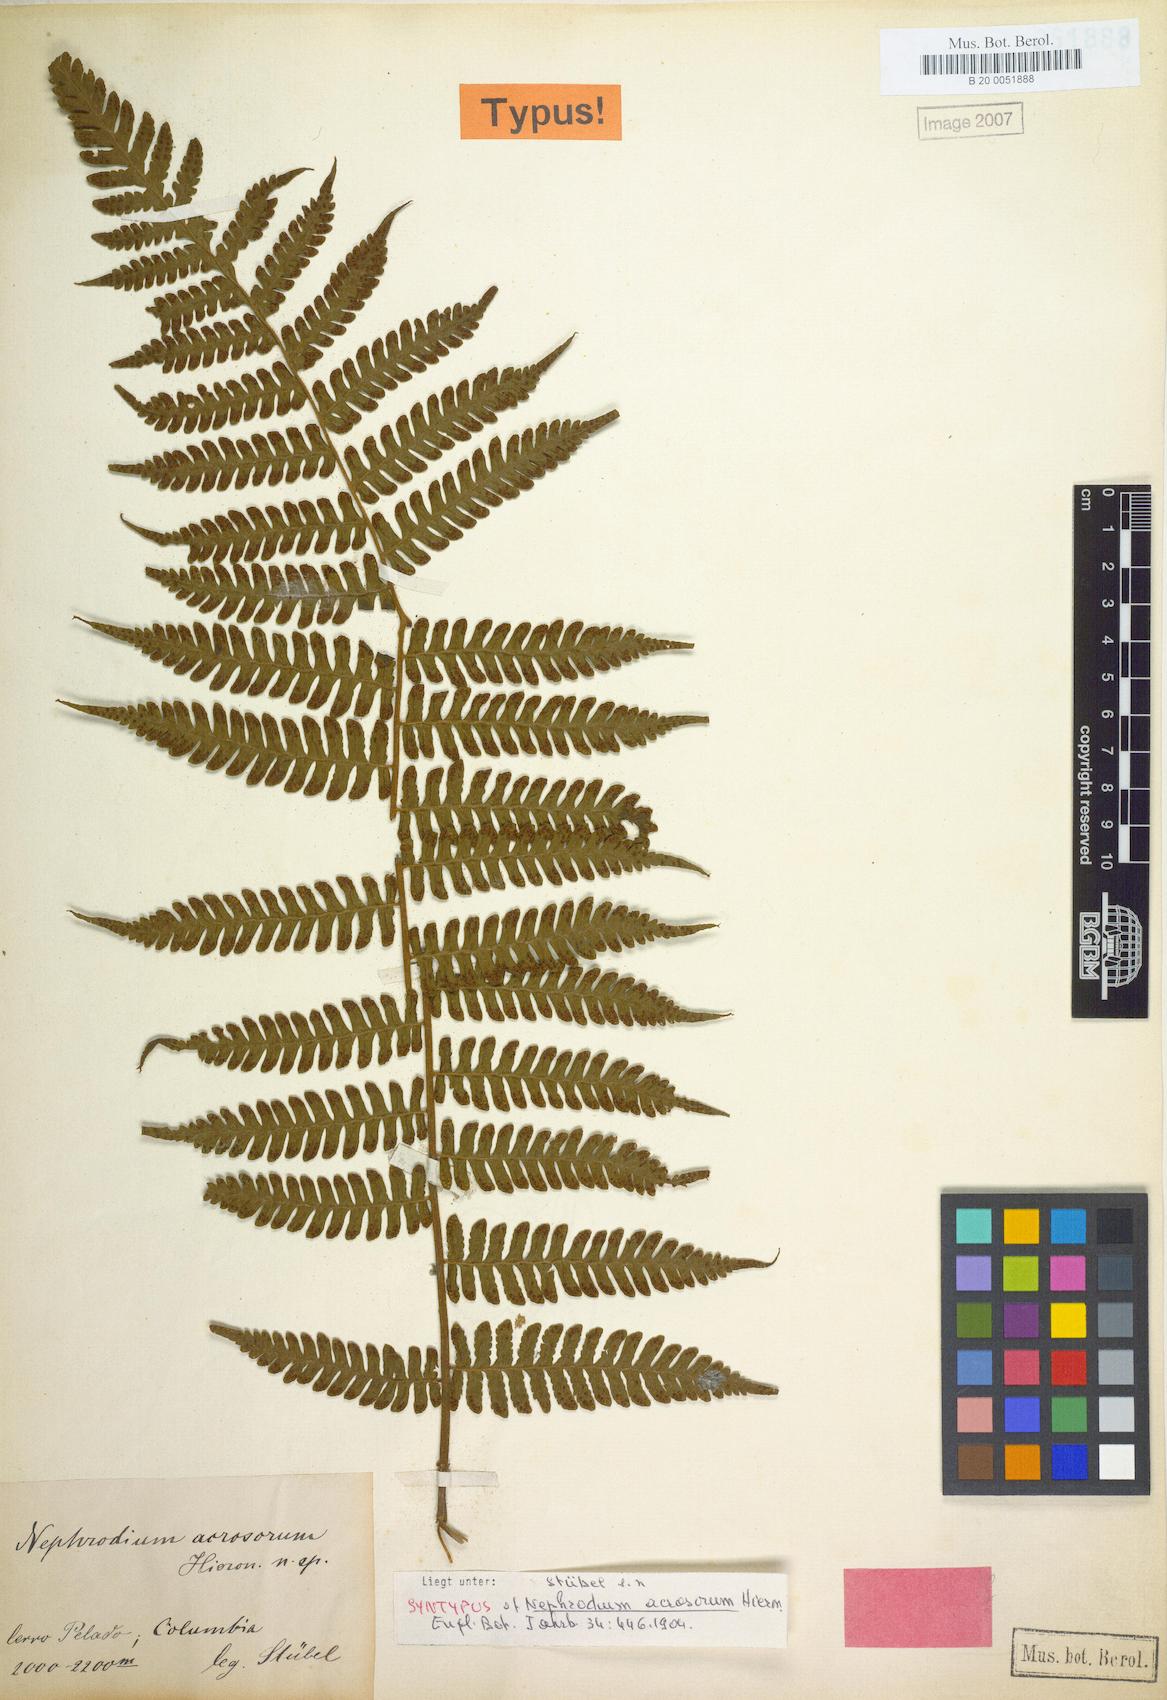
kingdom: Plantae
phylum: Tracheophyta
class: Polypodiopsida
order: Polypodiales
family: Dryopteridaceae
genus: Megalastrum
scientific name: Megalastrum acrosorum
